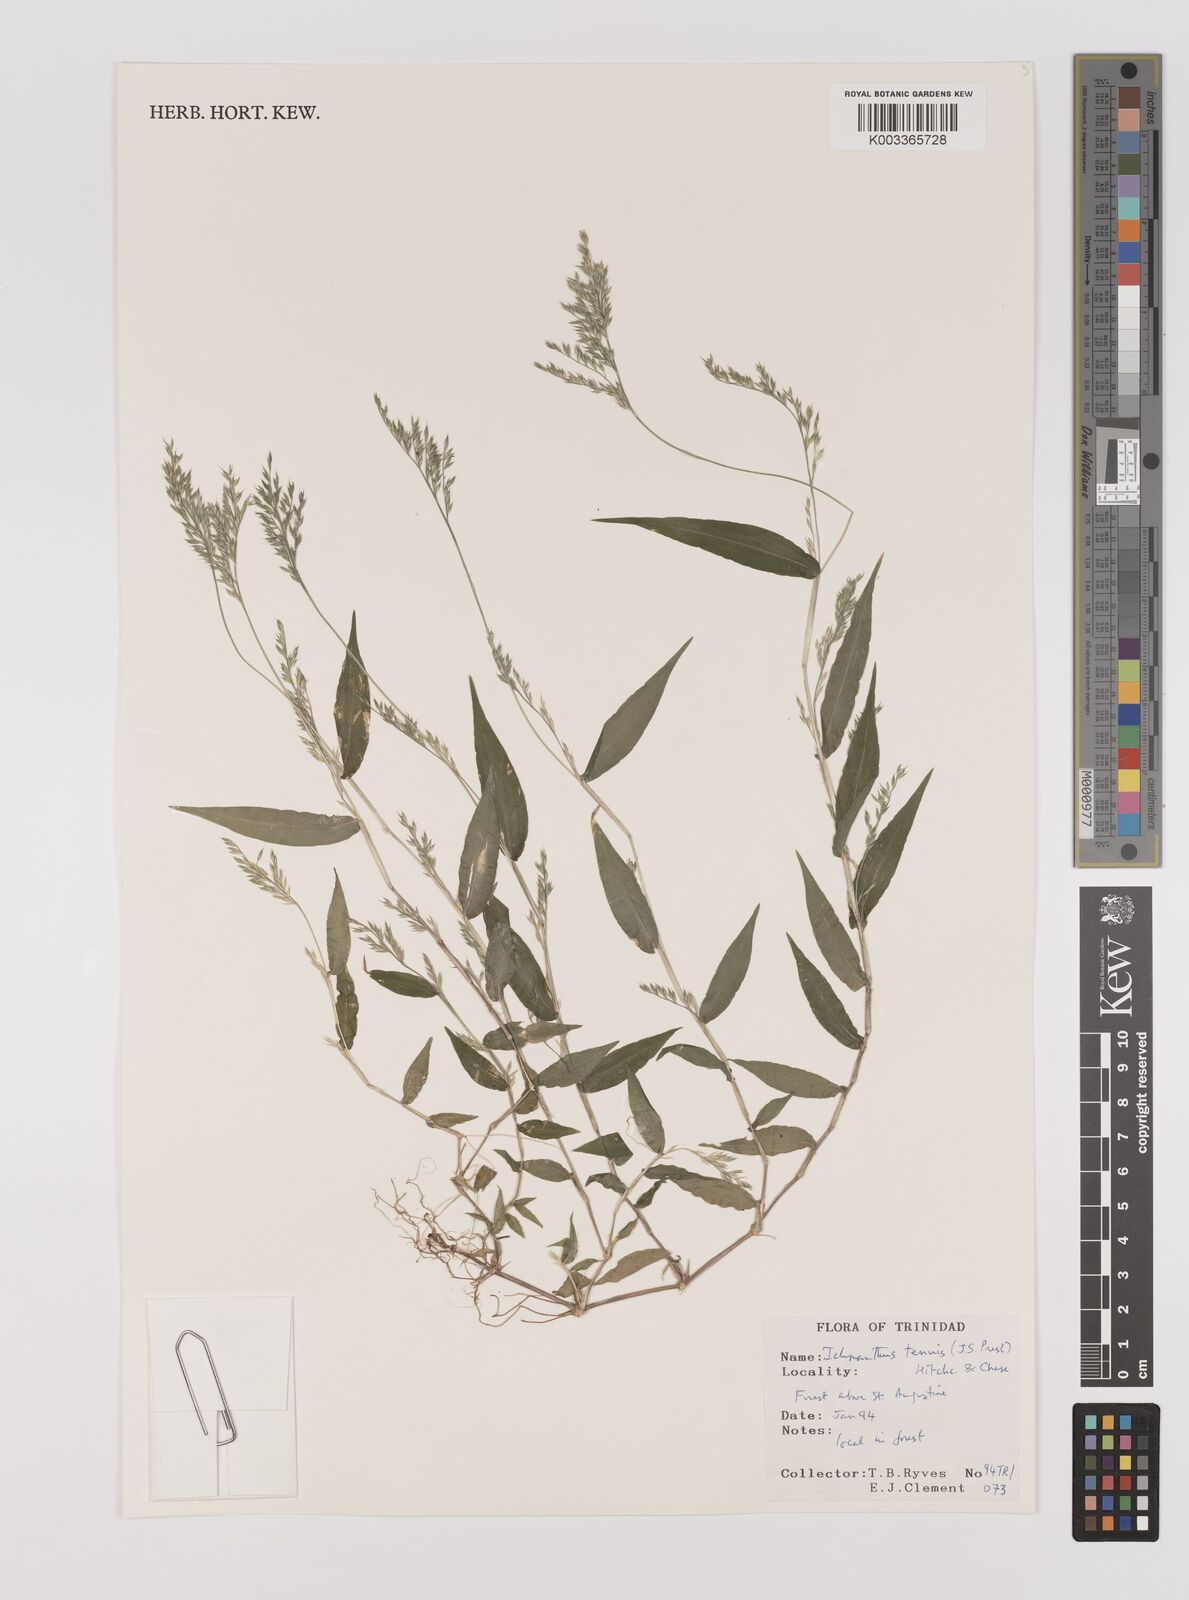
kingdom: Plantae
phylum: Tracheophyta
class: Liliopsida
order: Poales
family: Poaceae
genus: Ichnanthus
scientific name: Ichnanthus tenuis
